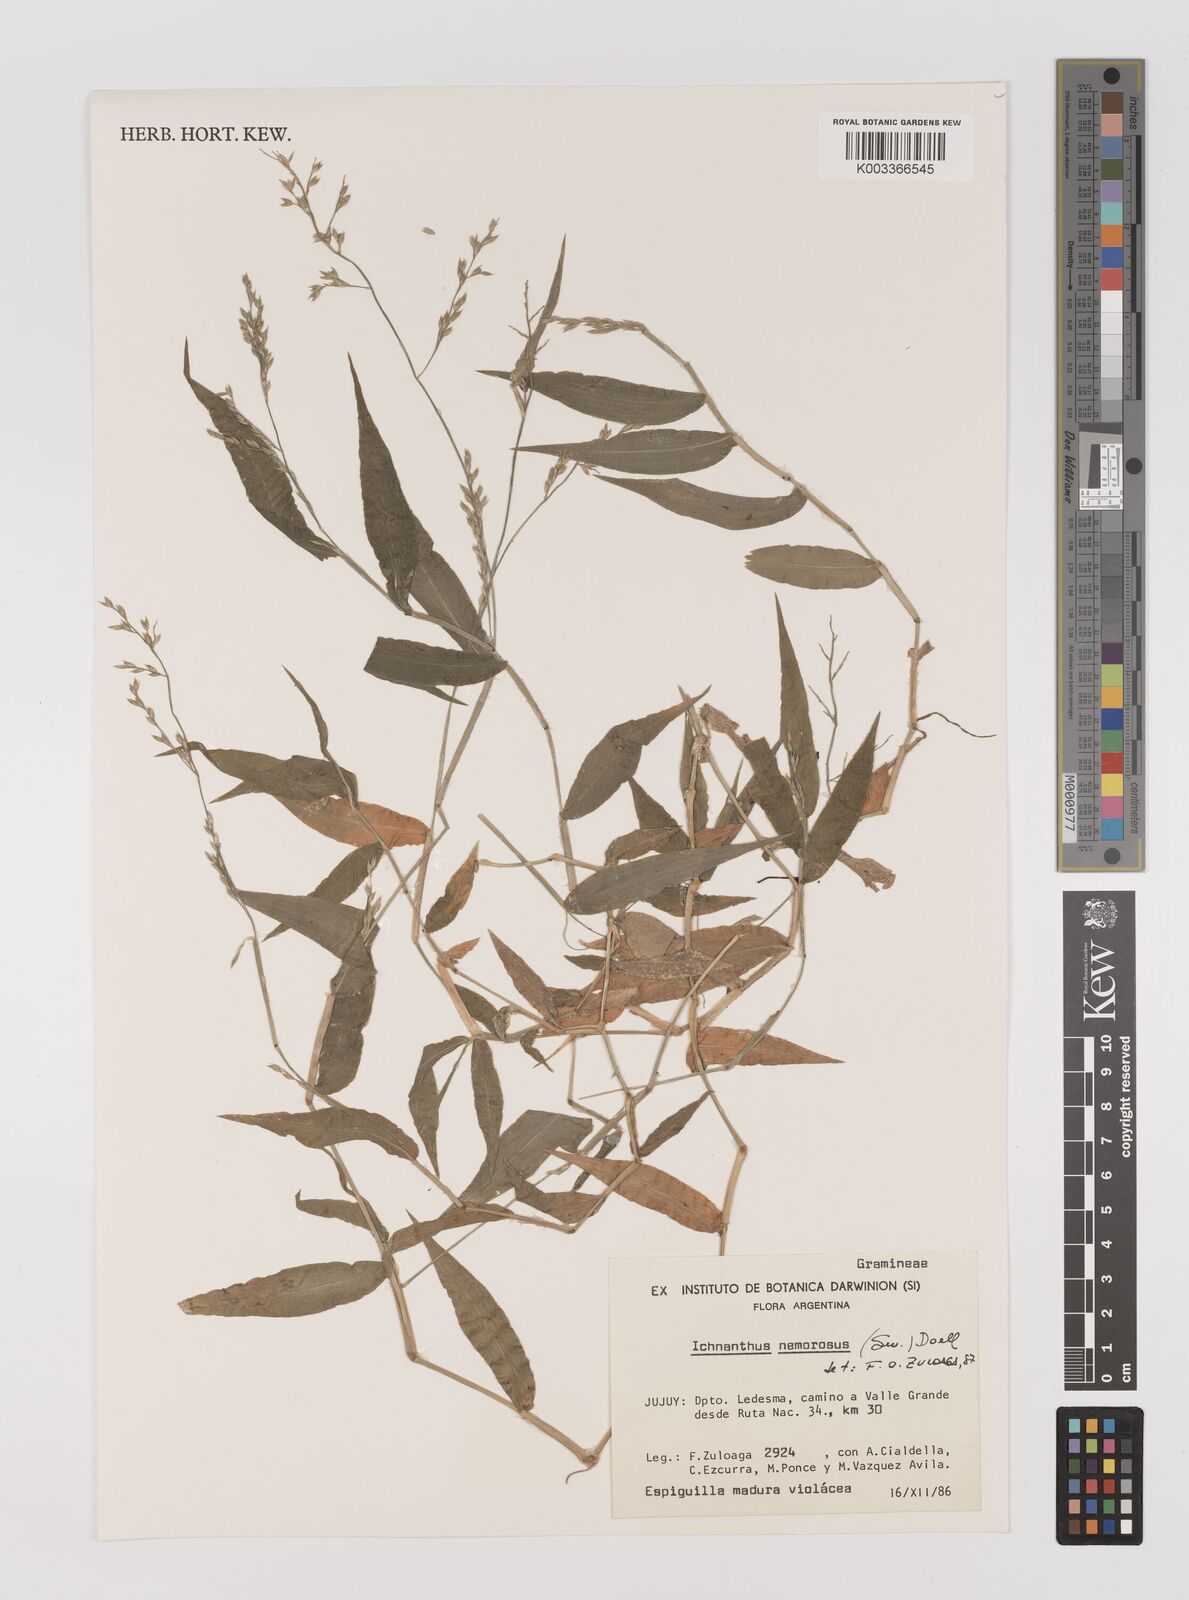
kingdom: Plantae
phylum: Tracheophyta
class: Liliopsida
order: Poales
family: Poaceae
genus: Ichnanthus
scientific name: Ichnanthus nemorosus
